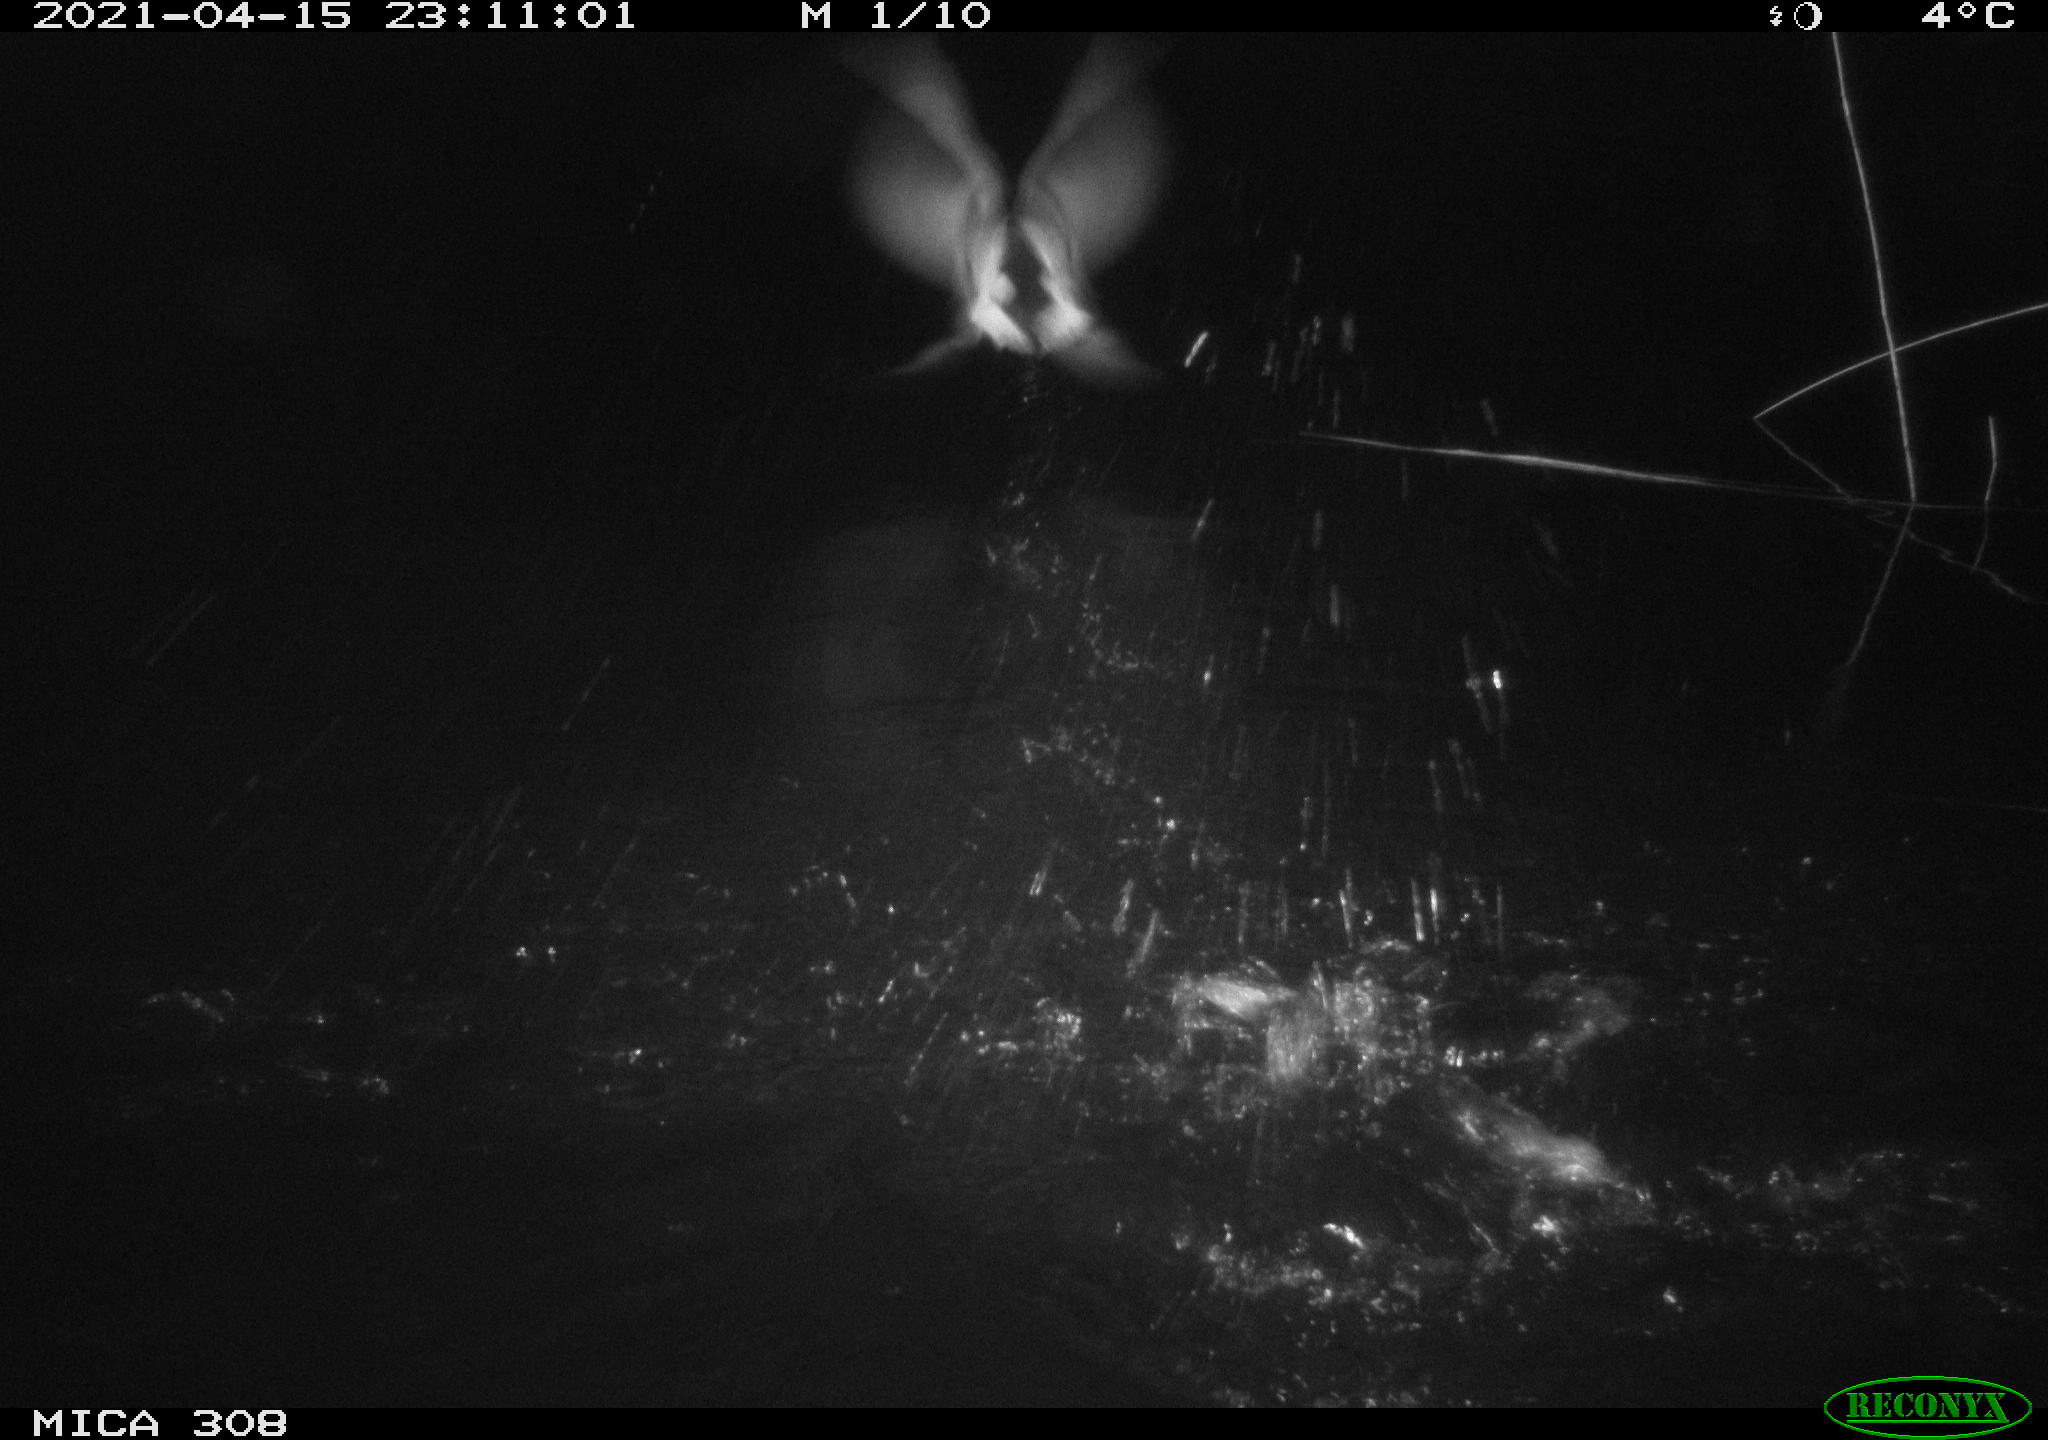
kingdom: Animalia
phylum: Chordata
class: Aves
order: Gruiformes
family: Rallidae
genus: Fulica
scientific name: Fulica atra
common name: Eurasian coot
